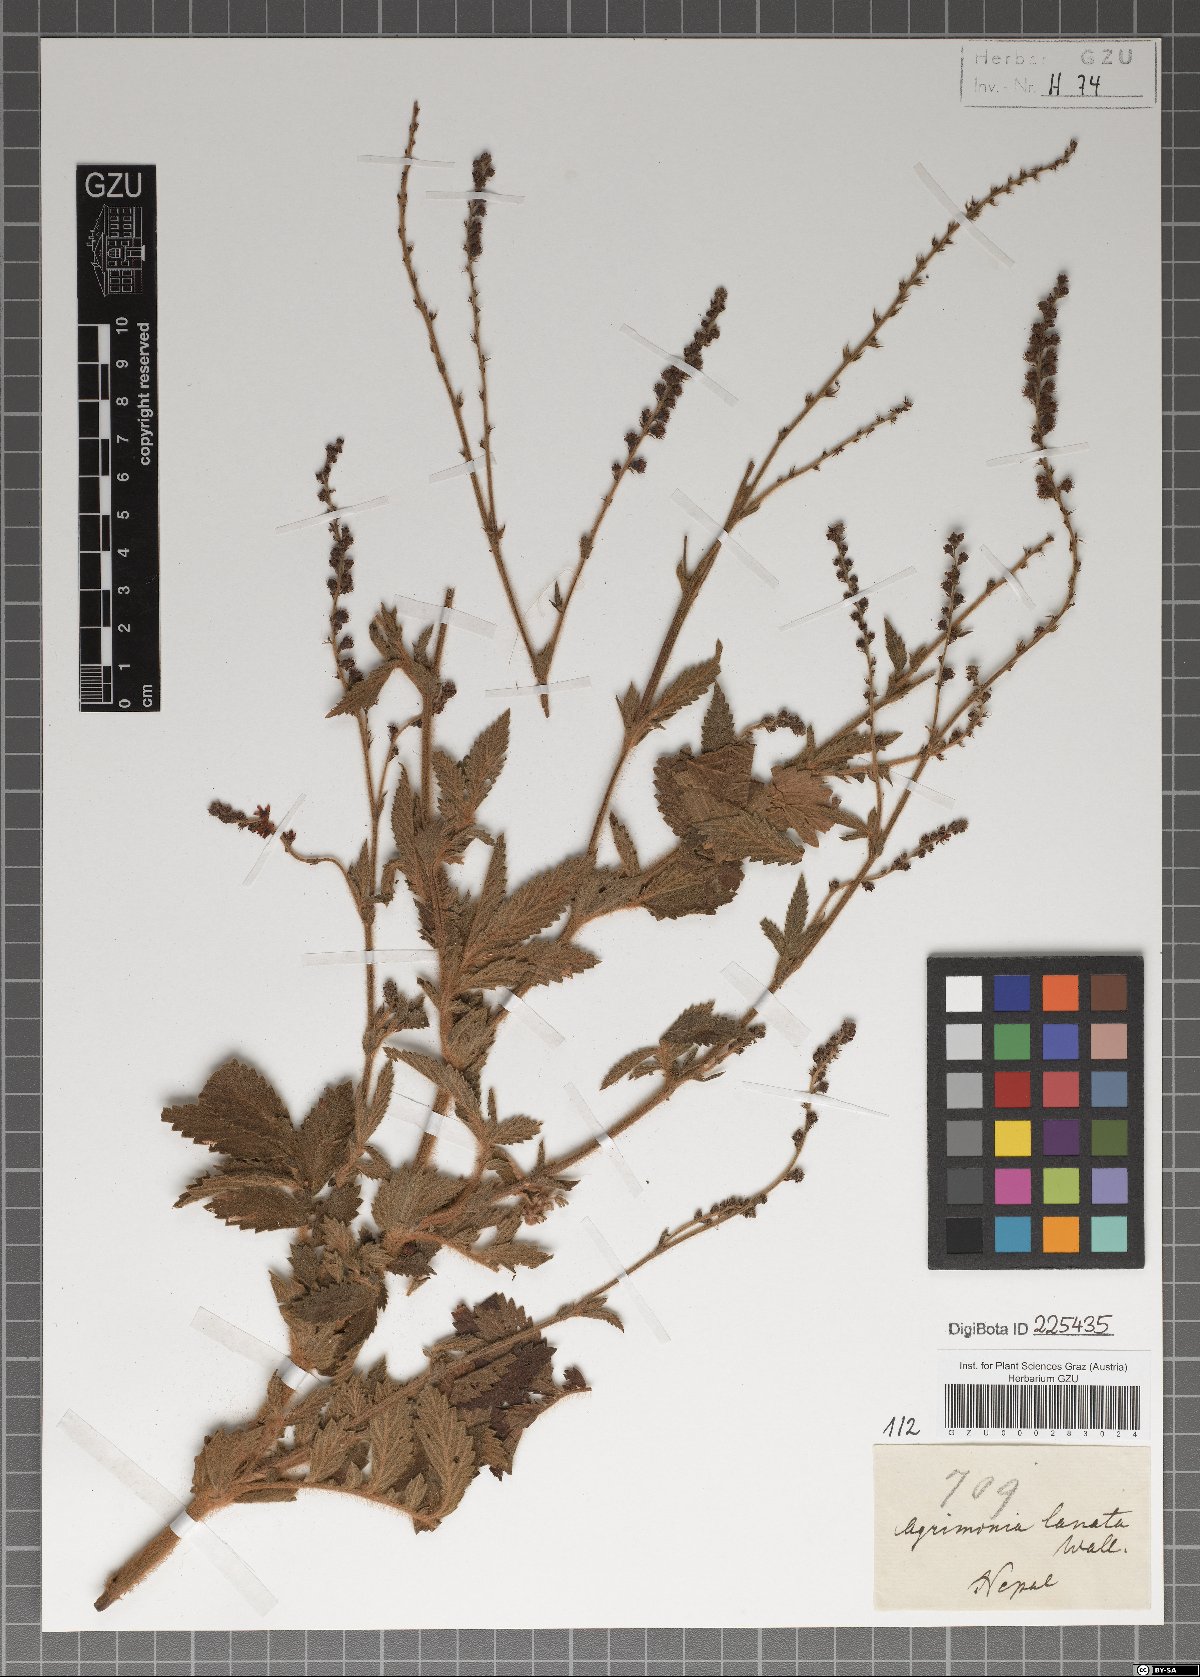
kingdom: Plantae
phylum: Tracheophyta
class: Magnoliopsida
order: Rosales
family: Rosaceae
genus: Agrimonia
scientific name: Agrimonia pilosa
